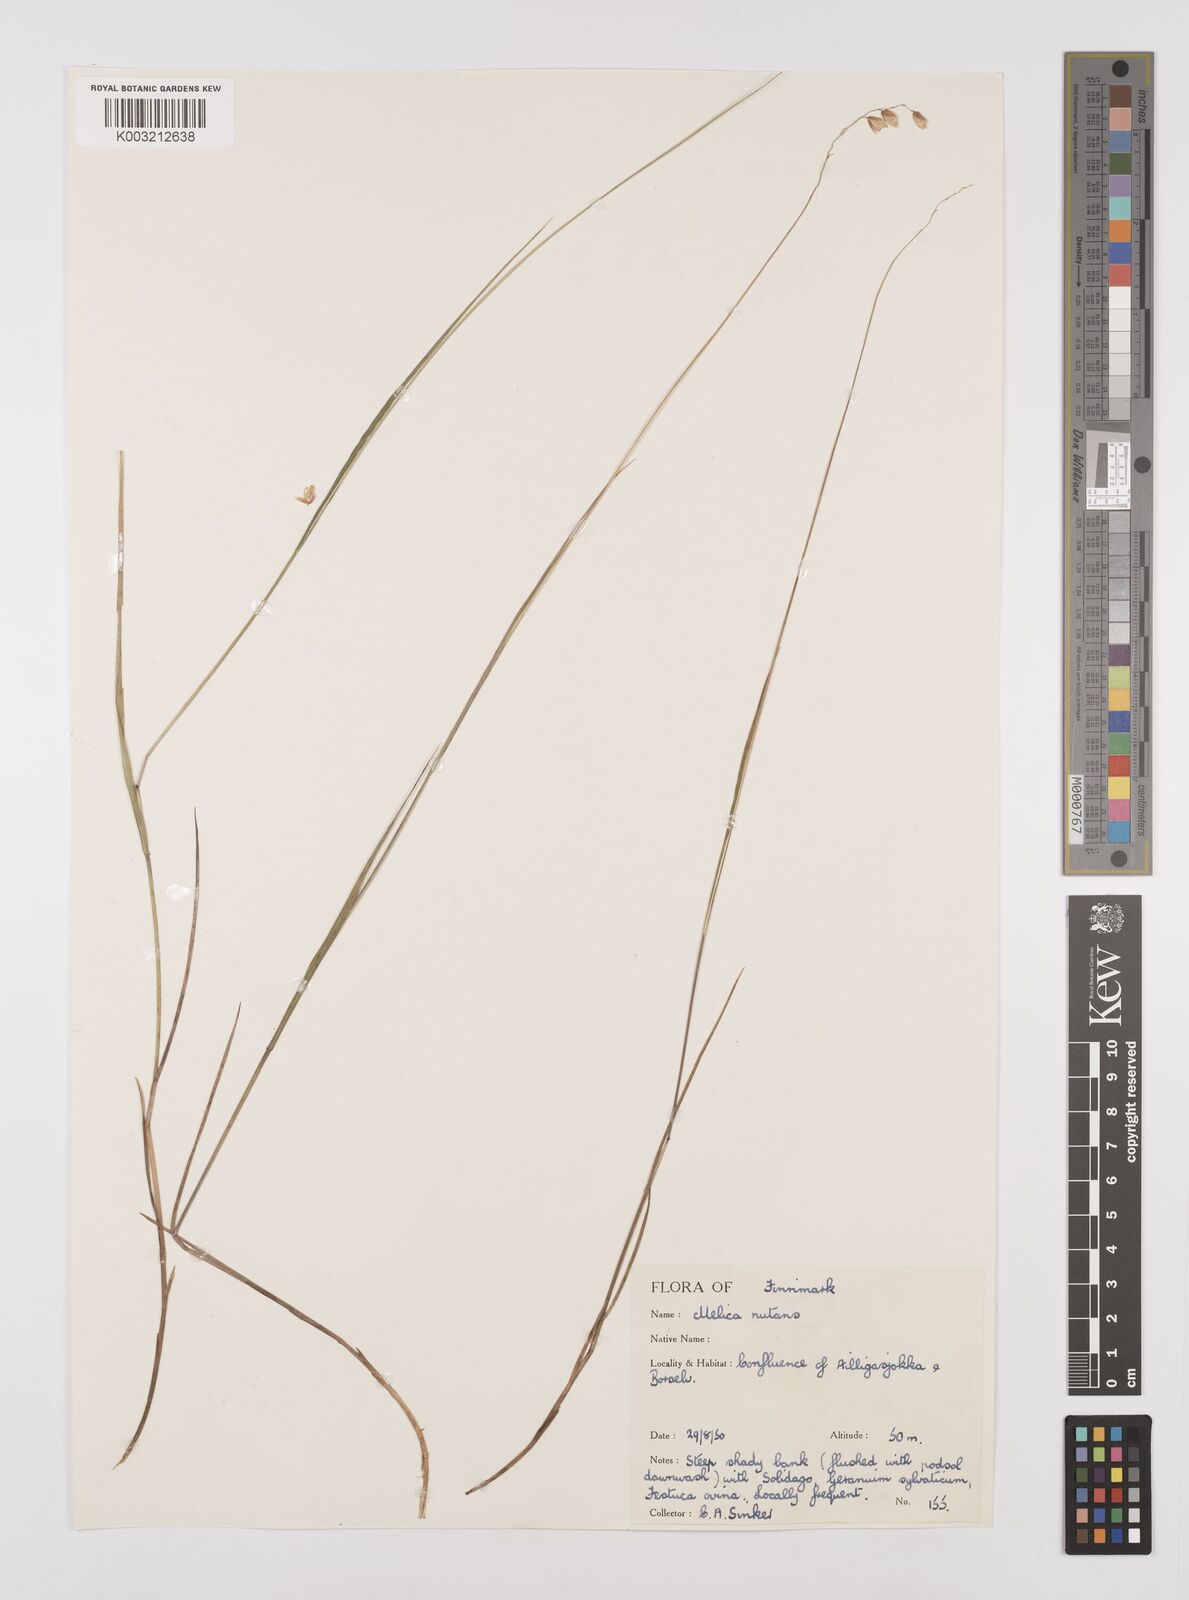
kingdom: Plantae
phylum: Tracheophyta
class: Liliopsida
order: Poales
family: Poaceae
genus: Melica
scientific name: Melica
